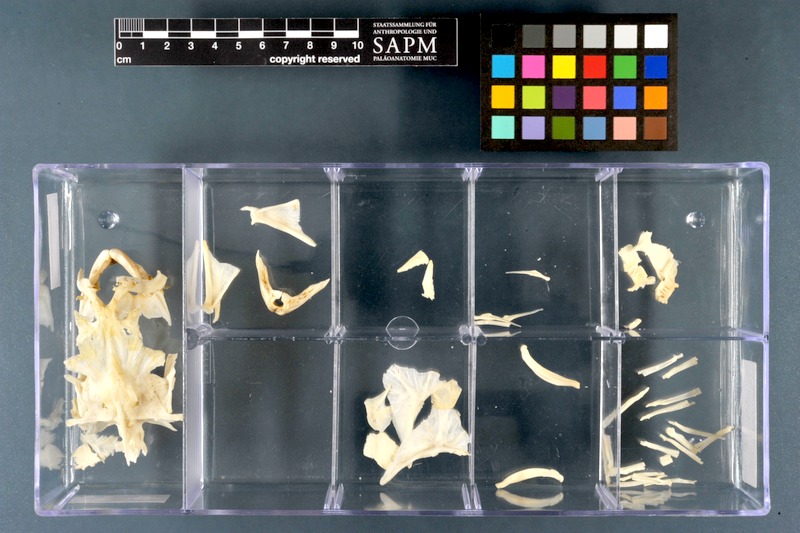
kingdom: Animalia
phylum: Chordata
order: Tetraodontiformes
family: Tetraodontidae
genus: Tetraodon
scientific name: Tetraodon lineatus
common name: Coral butterfly
